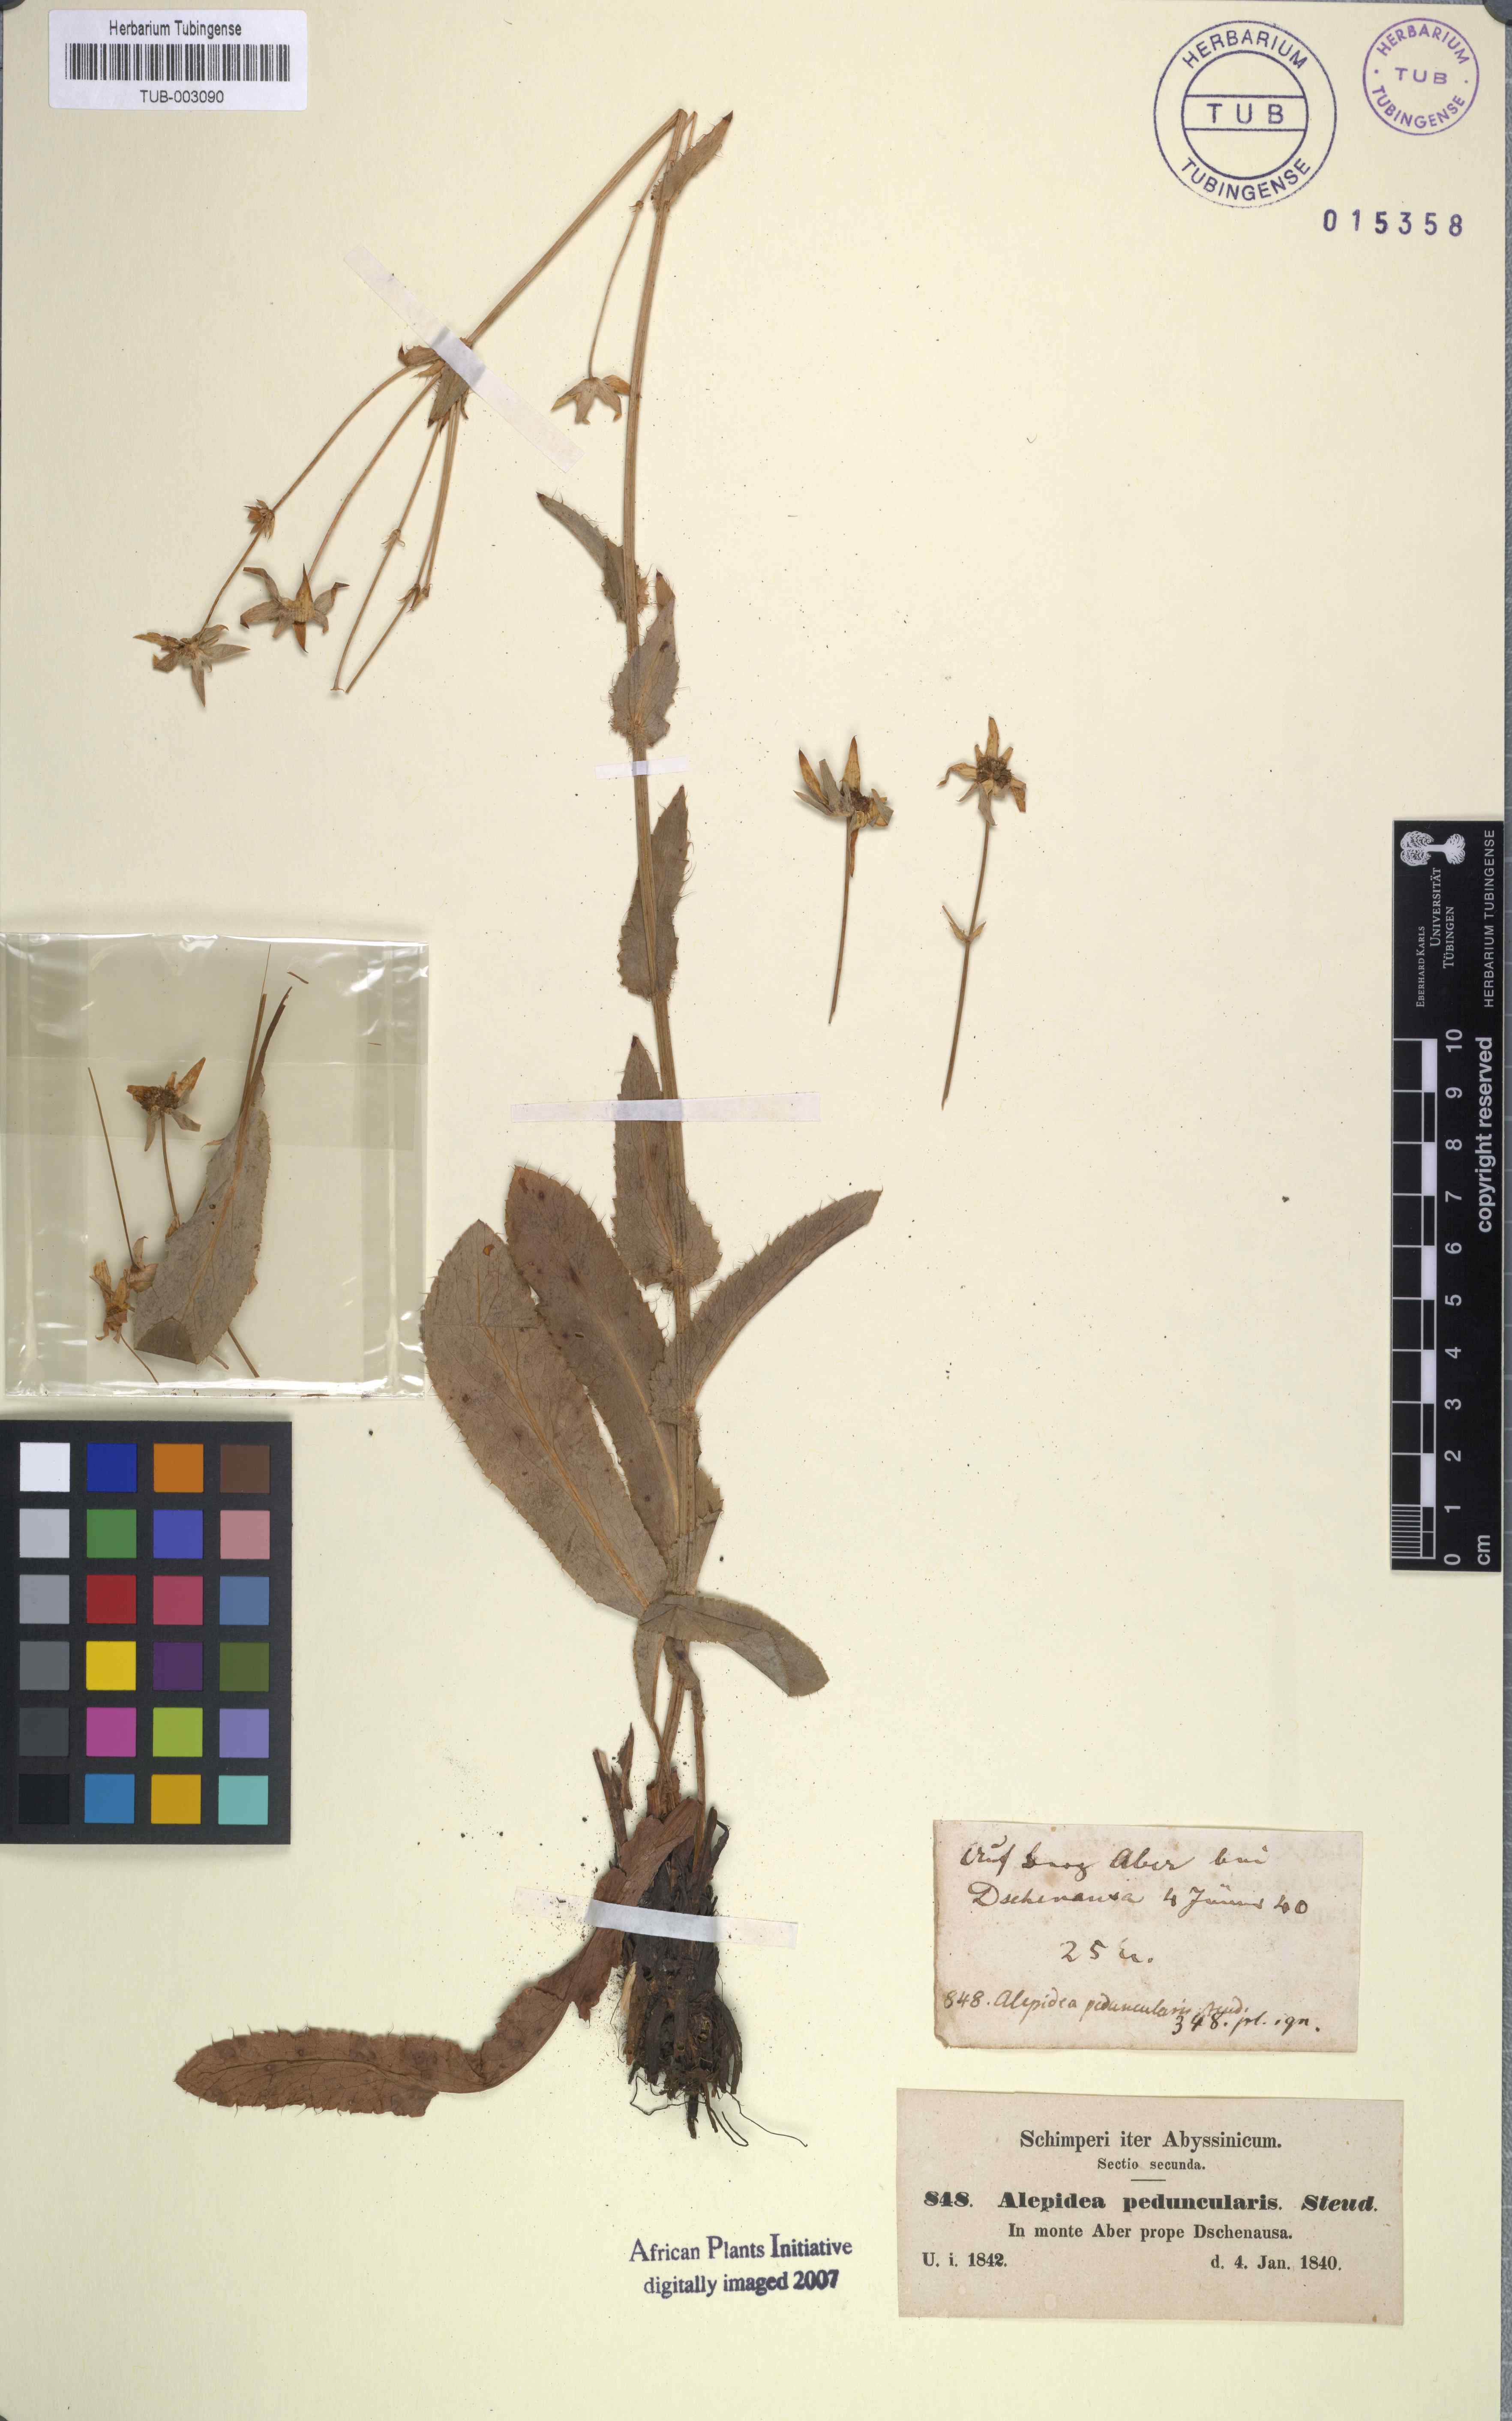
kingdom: Plantae
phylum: Tracheophyta
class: Magnoliopsida
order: Apiales
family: Apiaceae
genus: Alepidea
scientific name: Alepidea peduncularis
